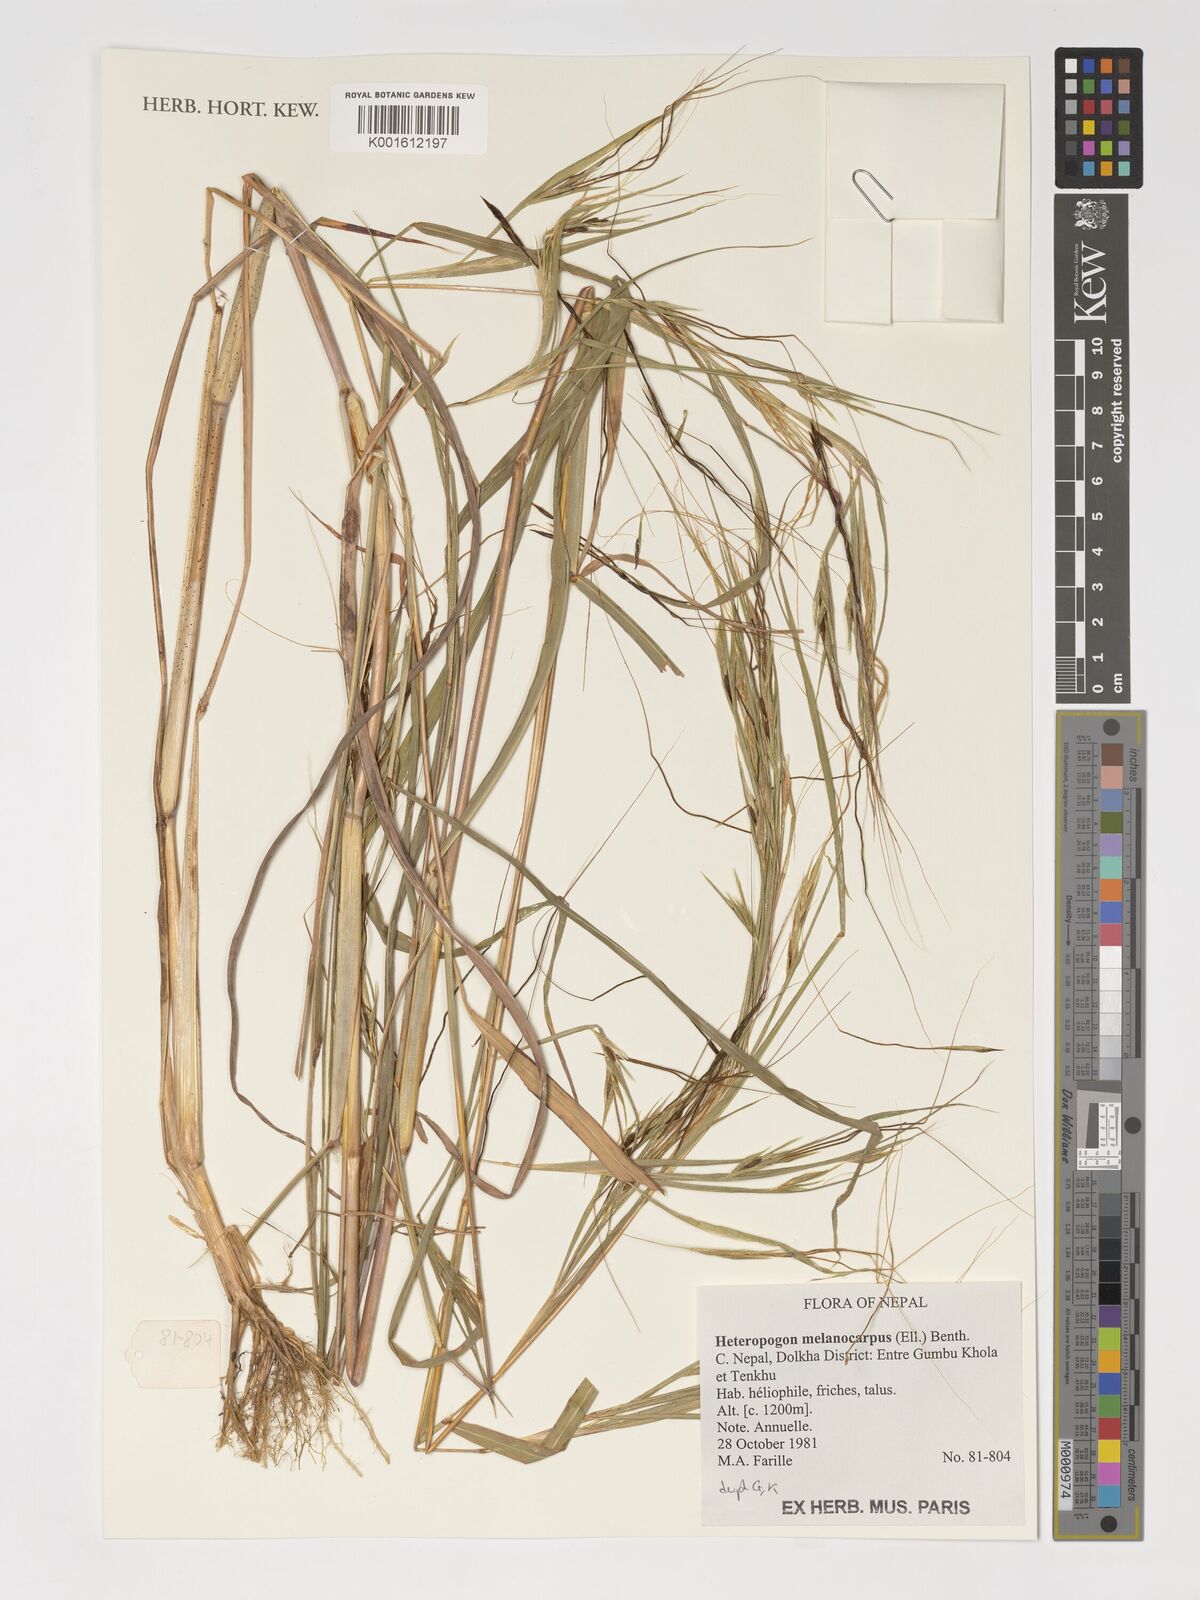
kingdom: Plantae
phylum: Tracheophyta
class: Liliopsida
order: Poales
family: Poaceae
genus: Heteropogon
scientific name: Heteropogon melanocarpus
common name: Sweet tanglehead
